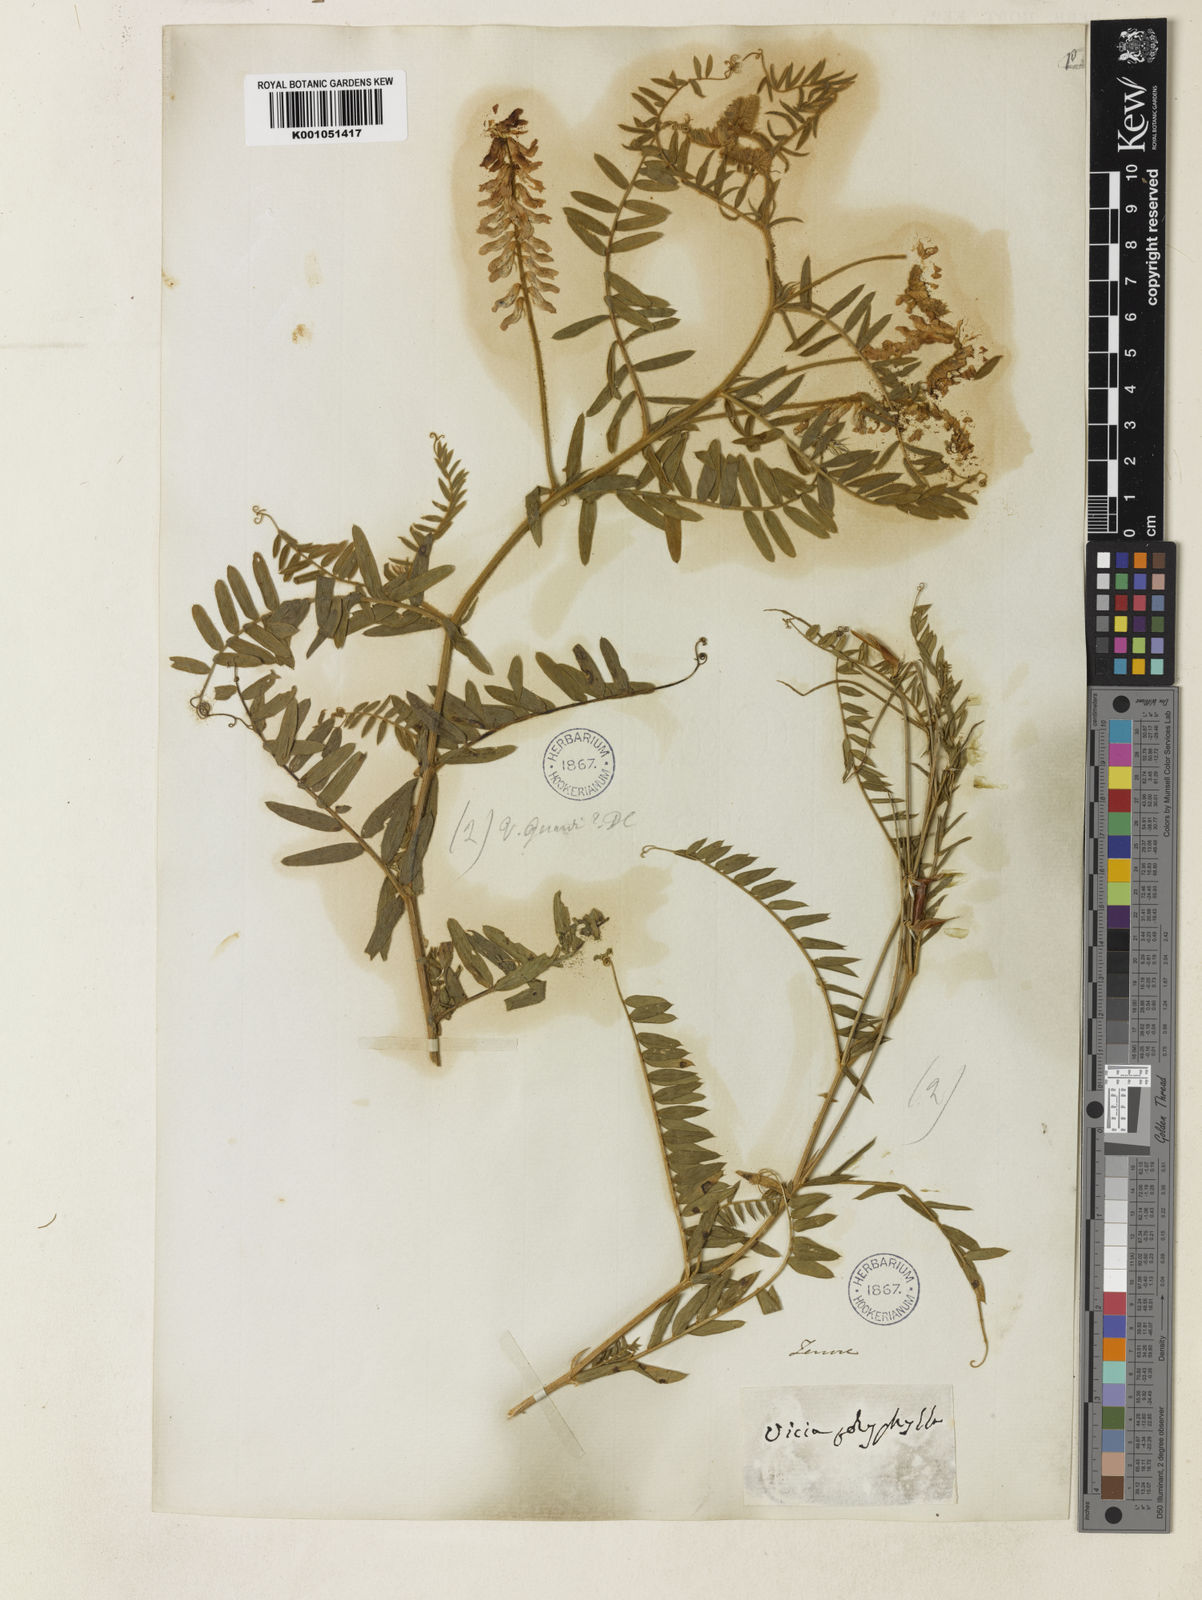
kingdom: Plantae
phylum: Tracheophyta
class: Magnoliopsida
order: Fabales
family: Fabaceae
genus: Vicia
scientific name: Vicia
